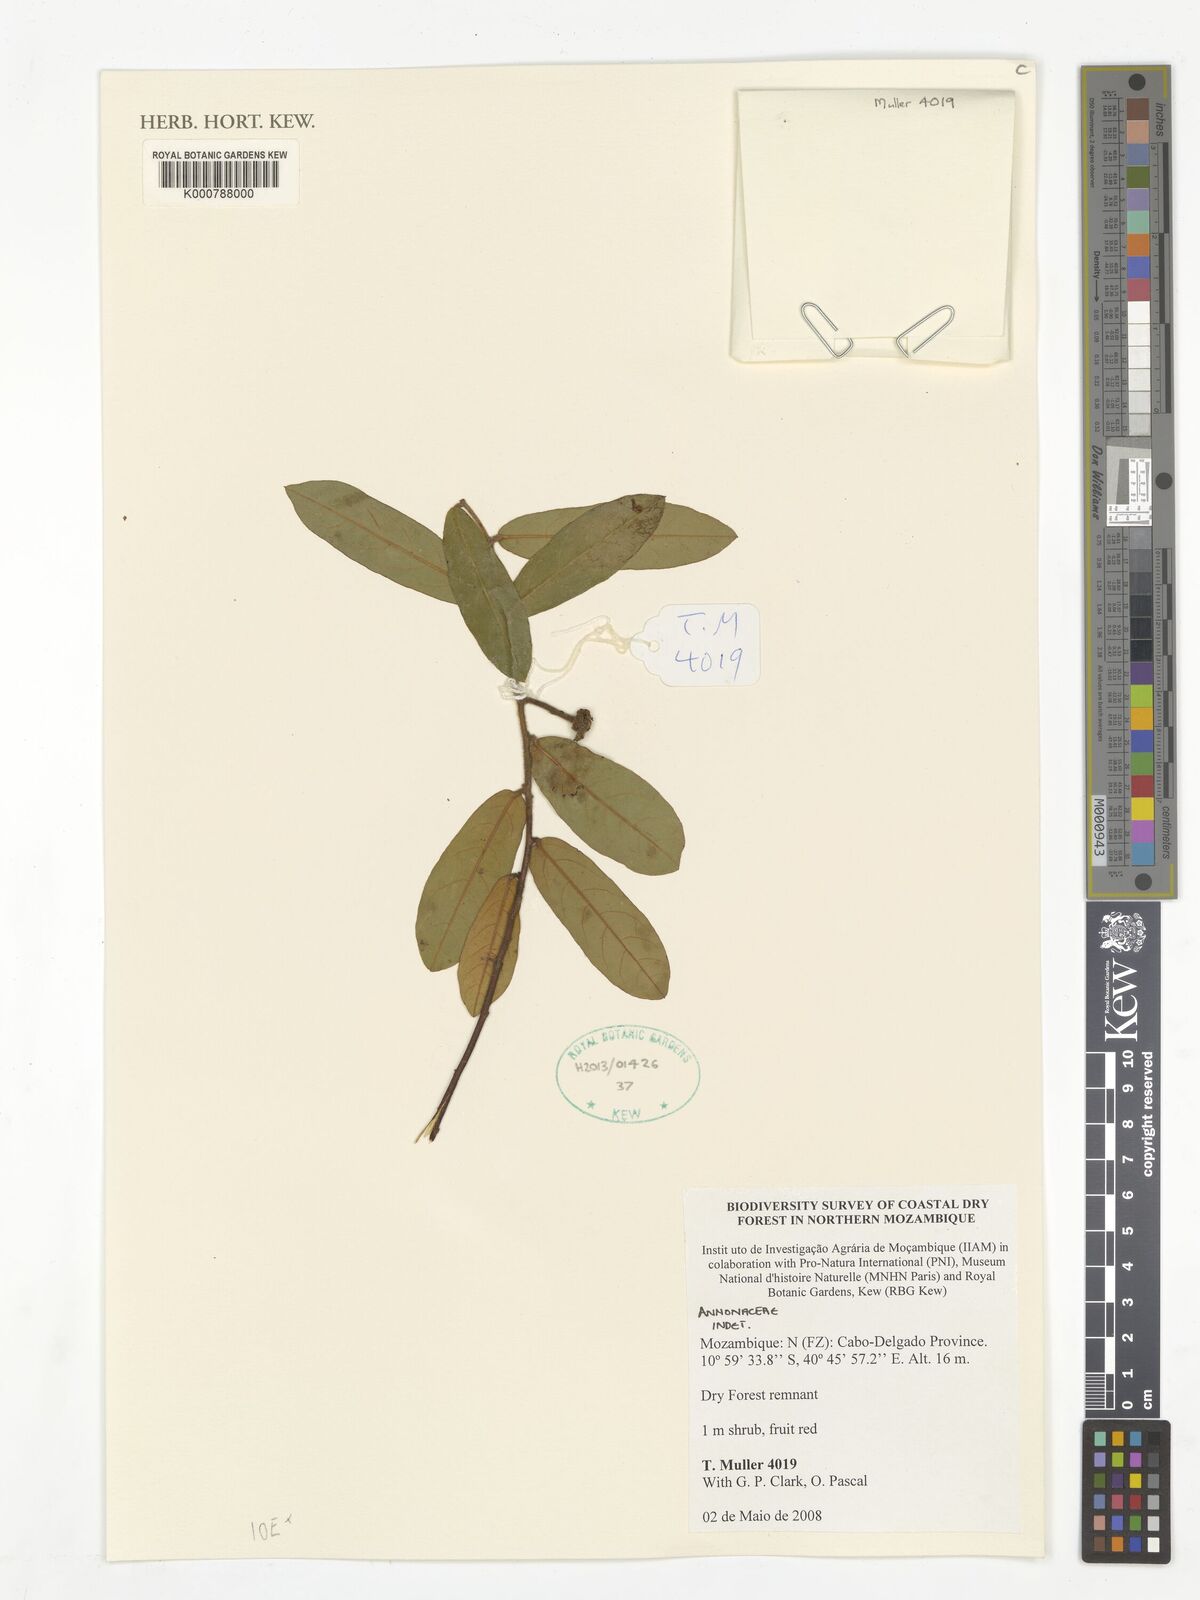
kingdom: Plantae
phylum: Tracheophyta
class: Magnoliopsida
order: Magnoliales
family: Annonaceae
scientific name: Annonaceae
